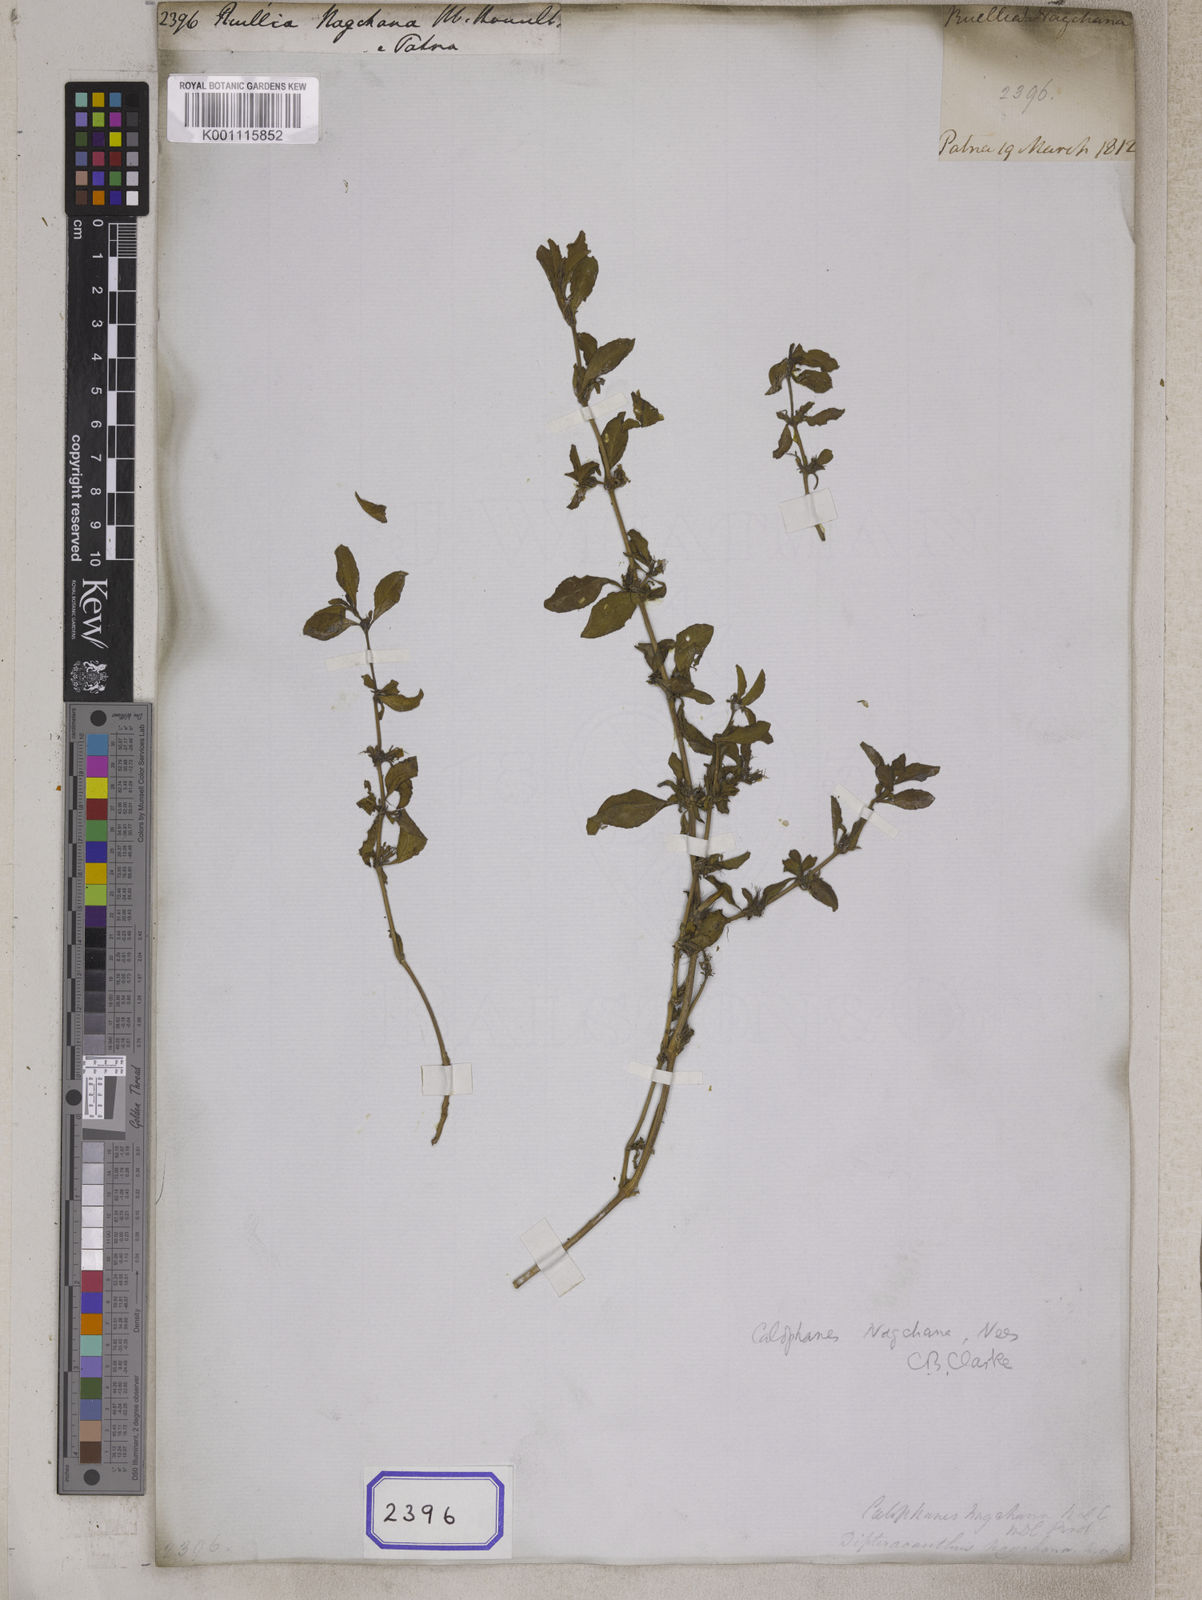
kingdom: Plantae
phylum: Tracheophyta
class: Magnoliopsida
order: Lamiales
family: Acanthaceae
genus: Dyschoriste
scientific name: Dyschoriste nagchana
